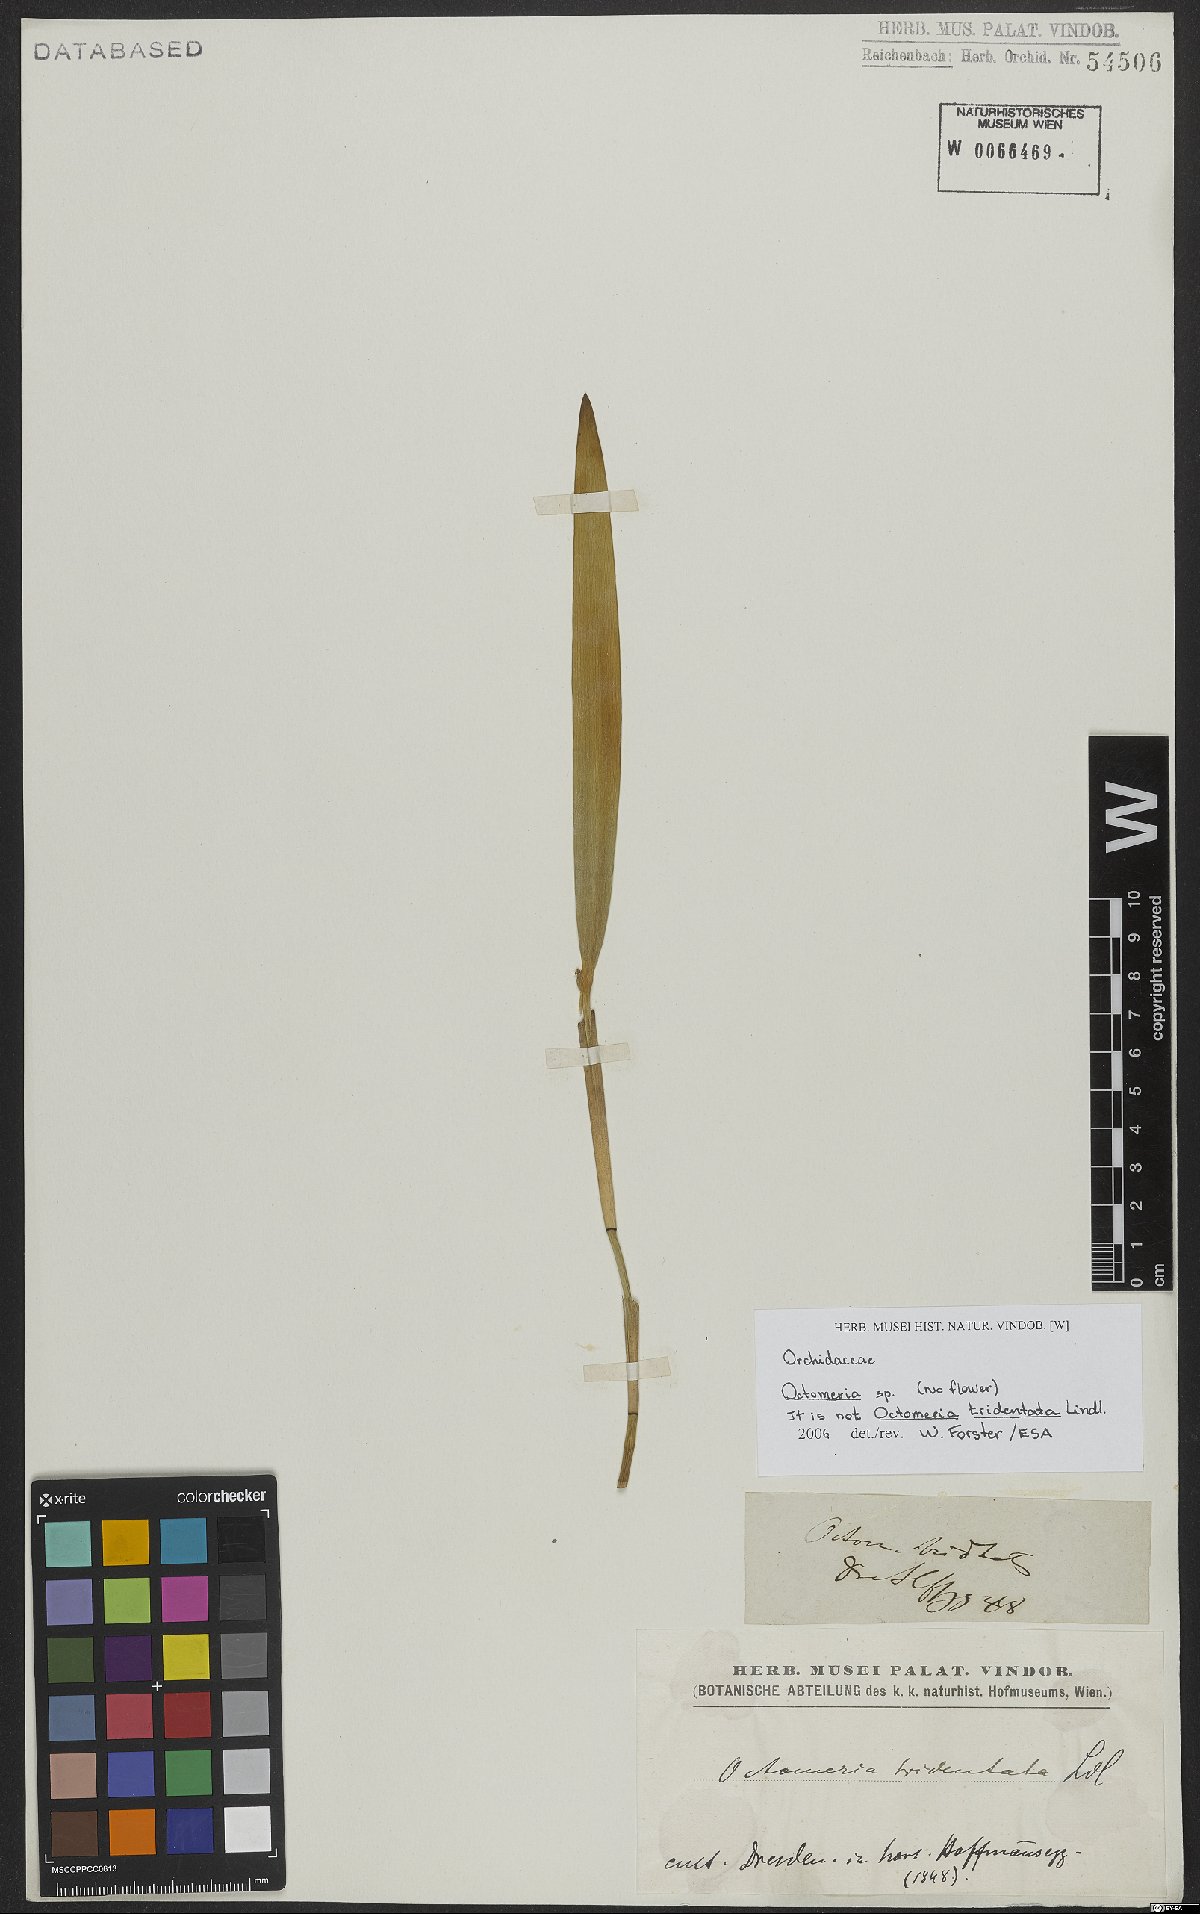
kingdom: Plantae
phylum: Tracheophyta
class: Liliopsida
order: Asparagales
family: Orchidaceae
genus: Octomeria
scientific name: Octomeria
